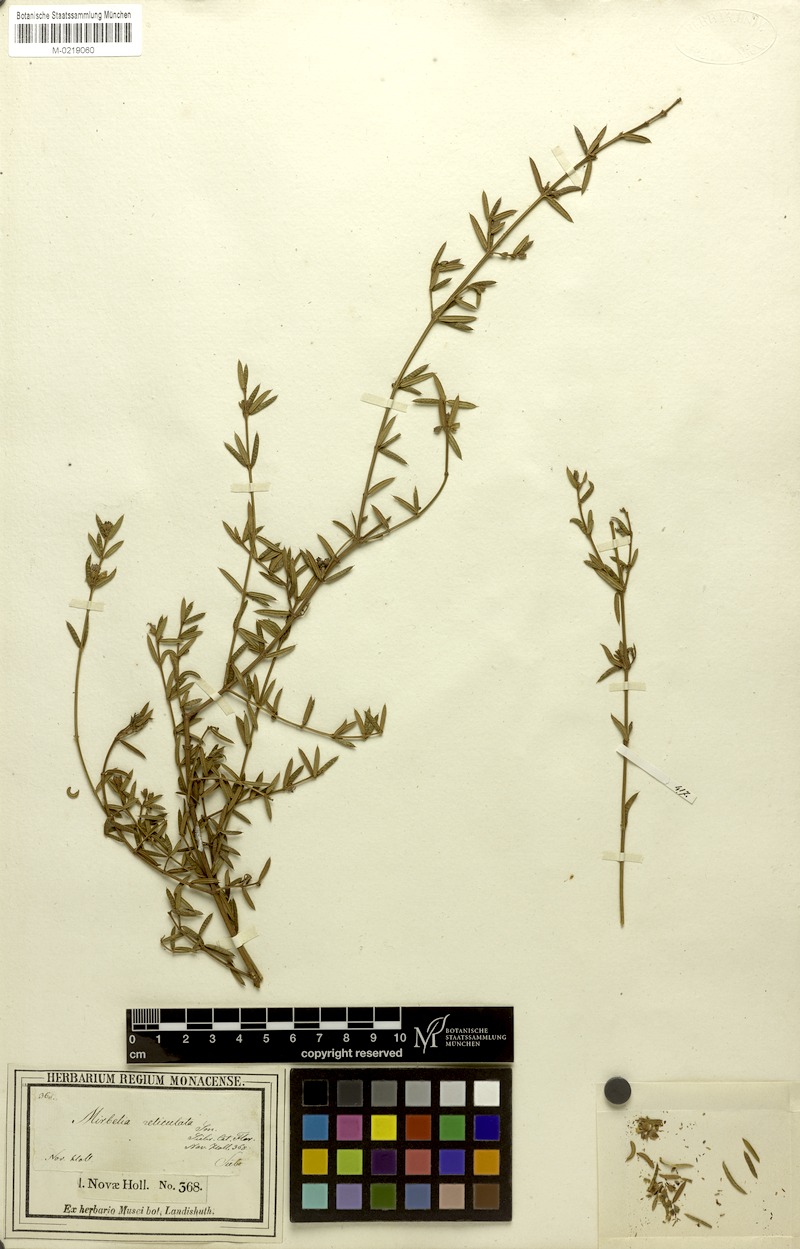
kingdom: Plantae
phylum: Tracheophyta
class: Magnoliopsida
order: Fabales
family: Fabaceae
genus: Mirbelia
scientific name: Mirbelia rubiifolia
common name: Heathy mirbelia
